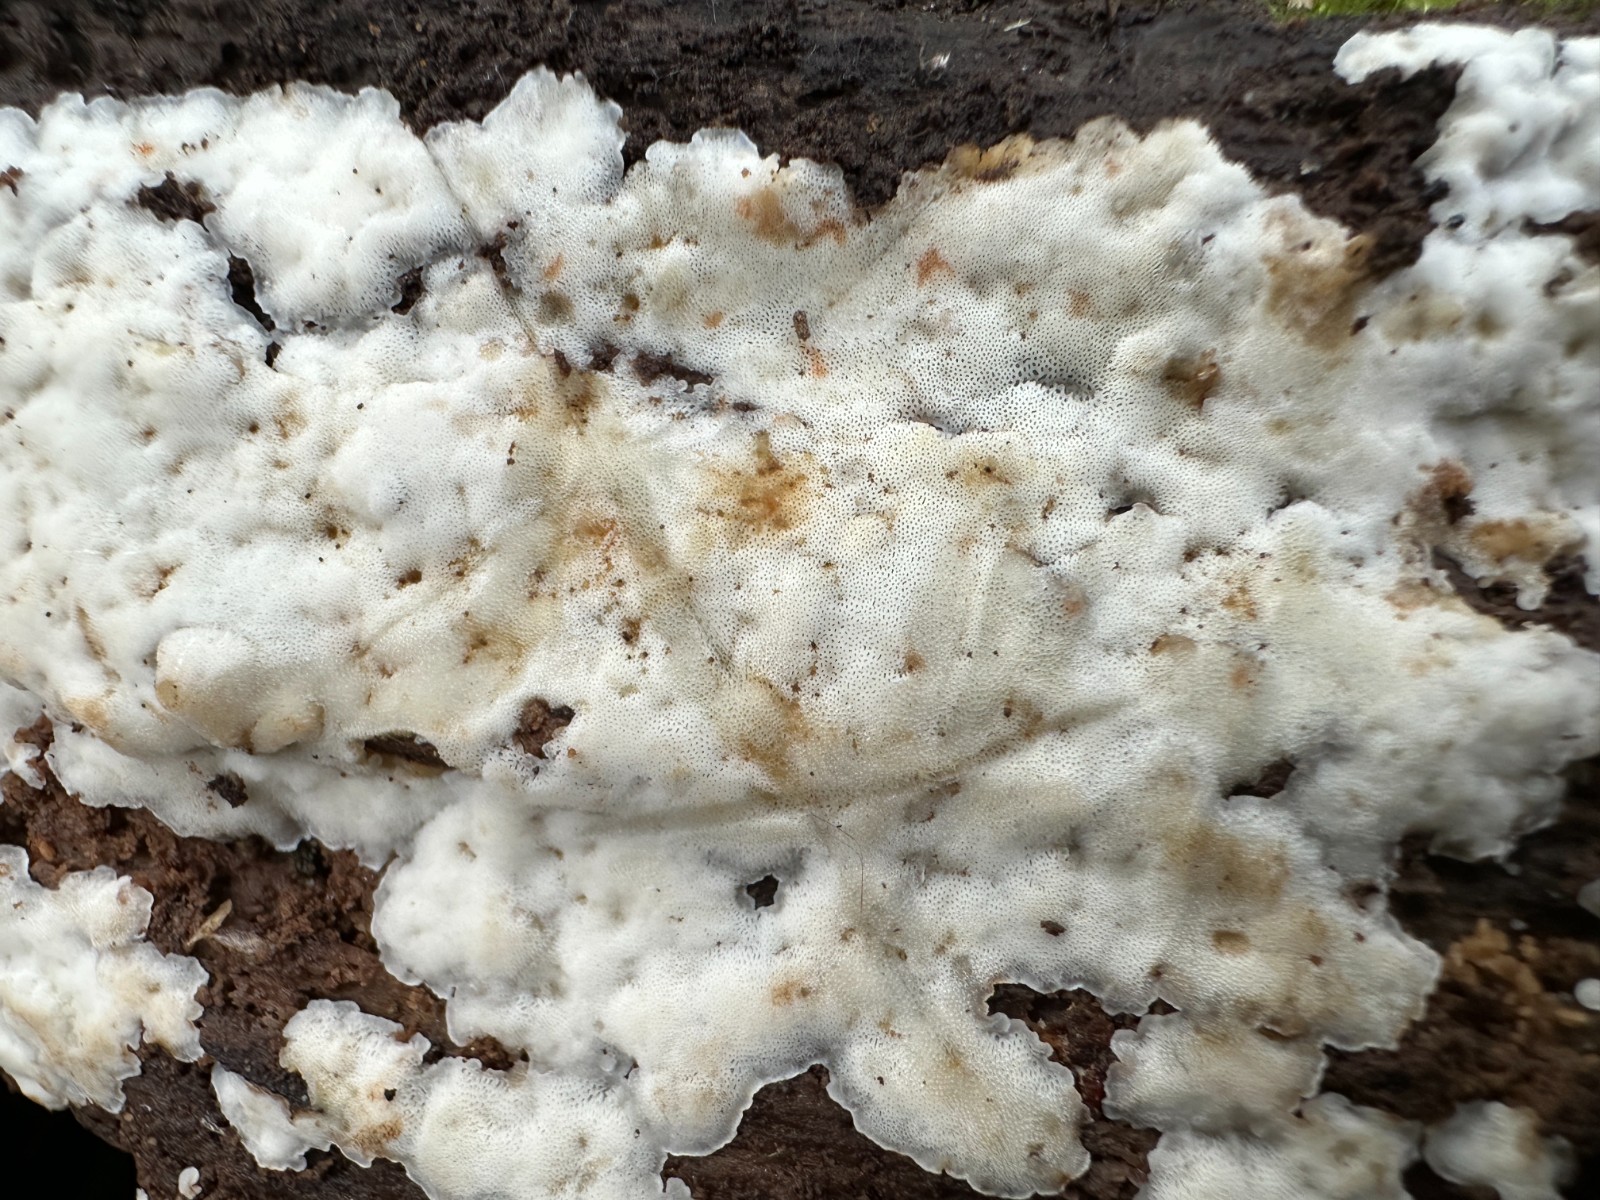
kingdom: Fungi
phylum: Basidiomycota
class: Agaricomycetes
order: Polyporales
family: Meripilaceae
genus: Rigidoporus
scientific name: Rigidoporus sanguinolentus
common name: blod-skorpeporesvamp
